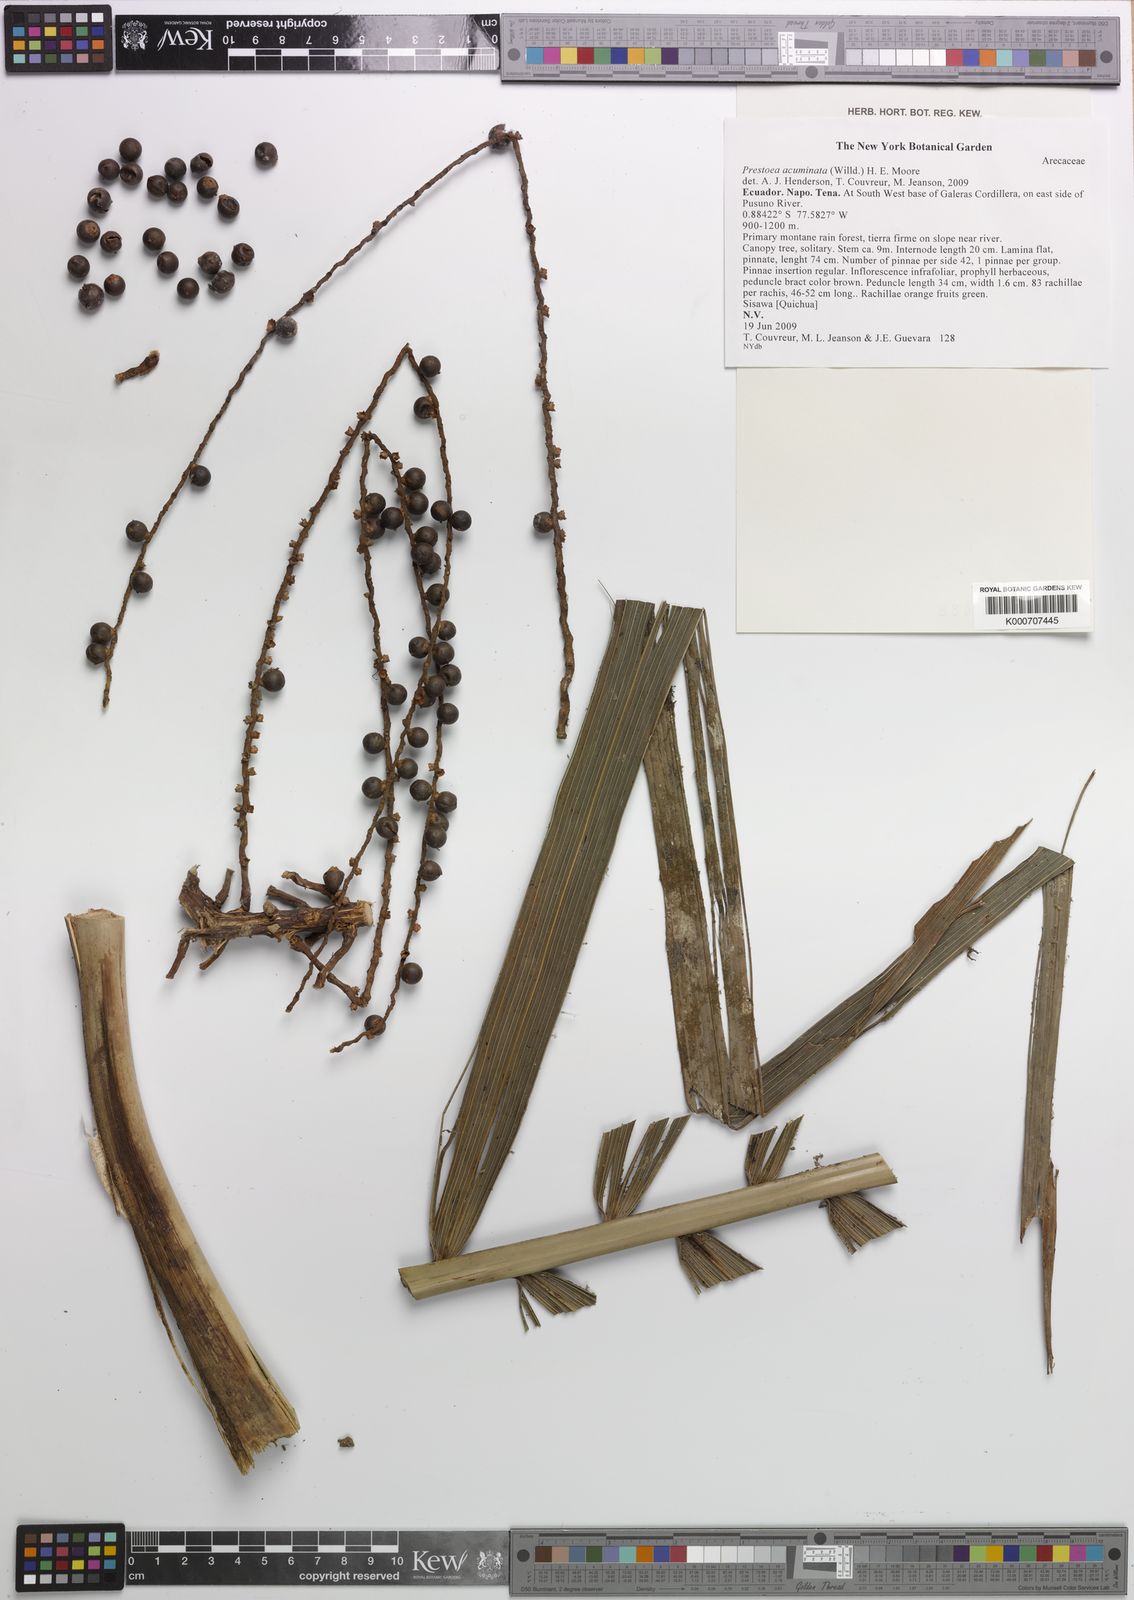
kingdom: Plantae
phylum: Tracheophyta
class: Liliopsida
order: Arecales
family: Arecaceae
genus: Prestoea
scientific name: Prestoea acuminata
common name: Sierran palm
